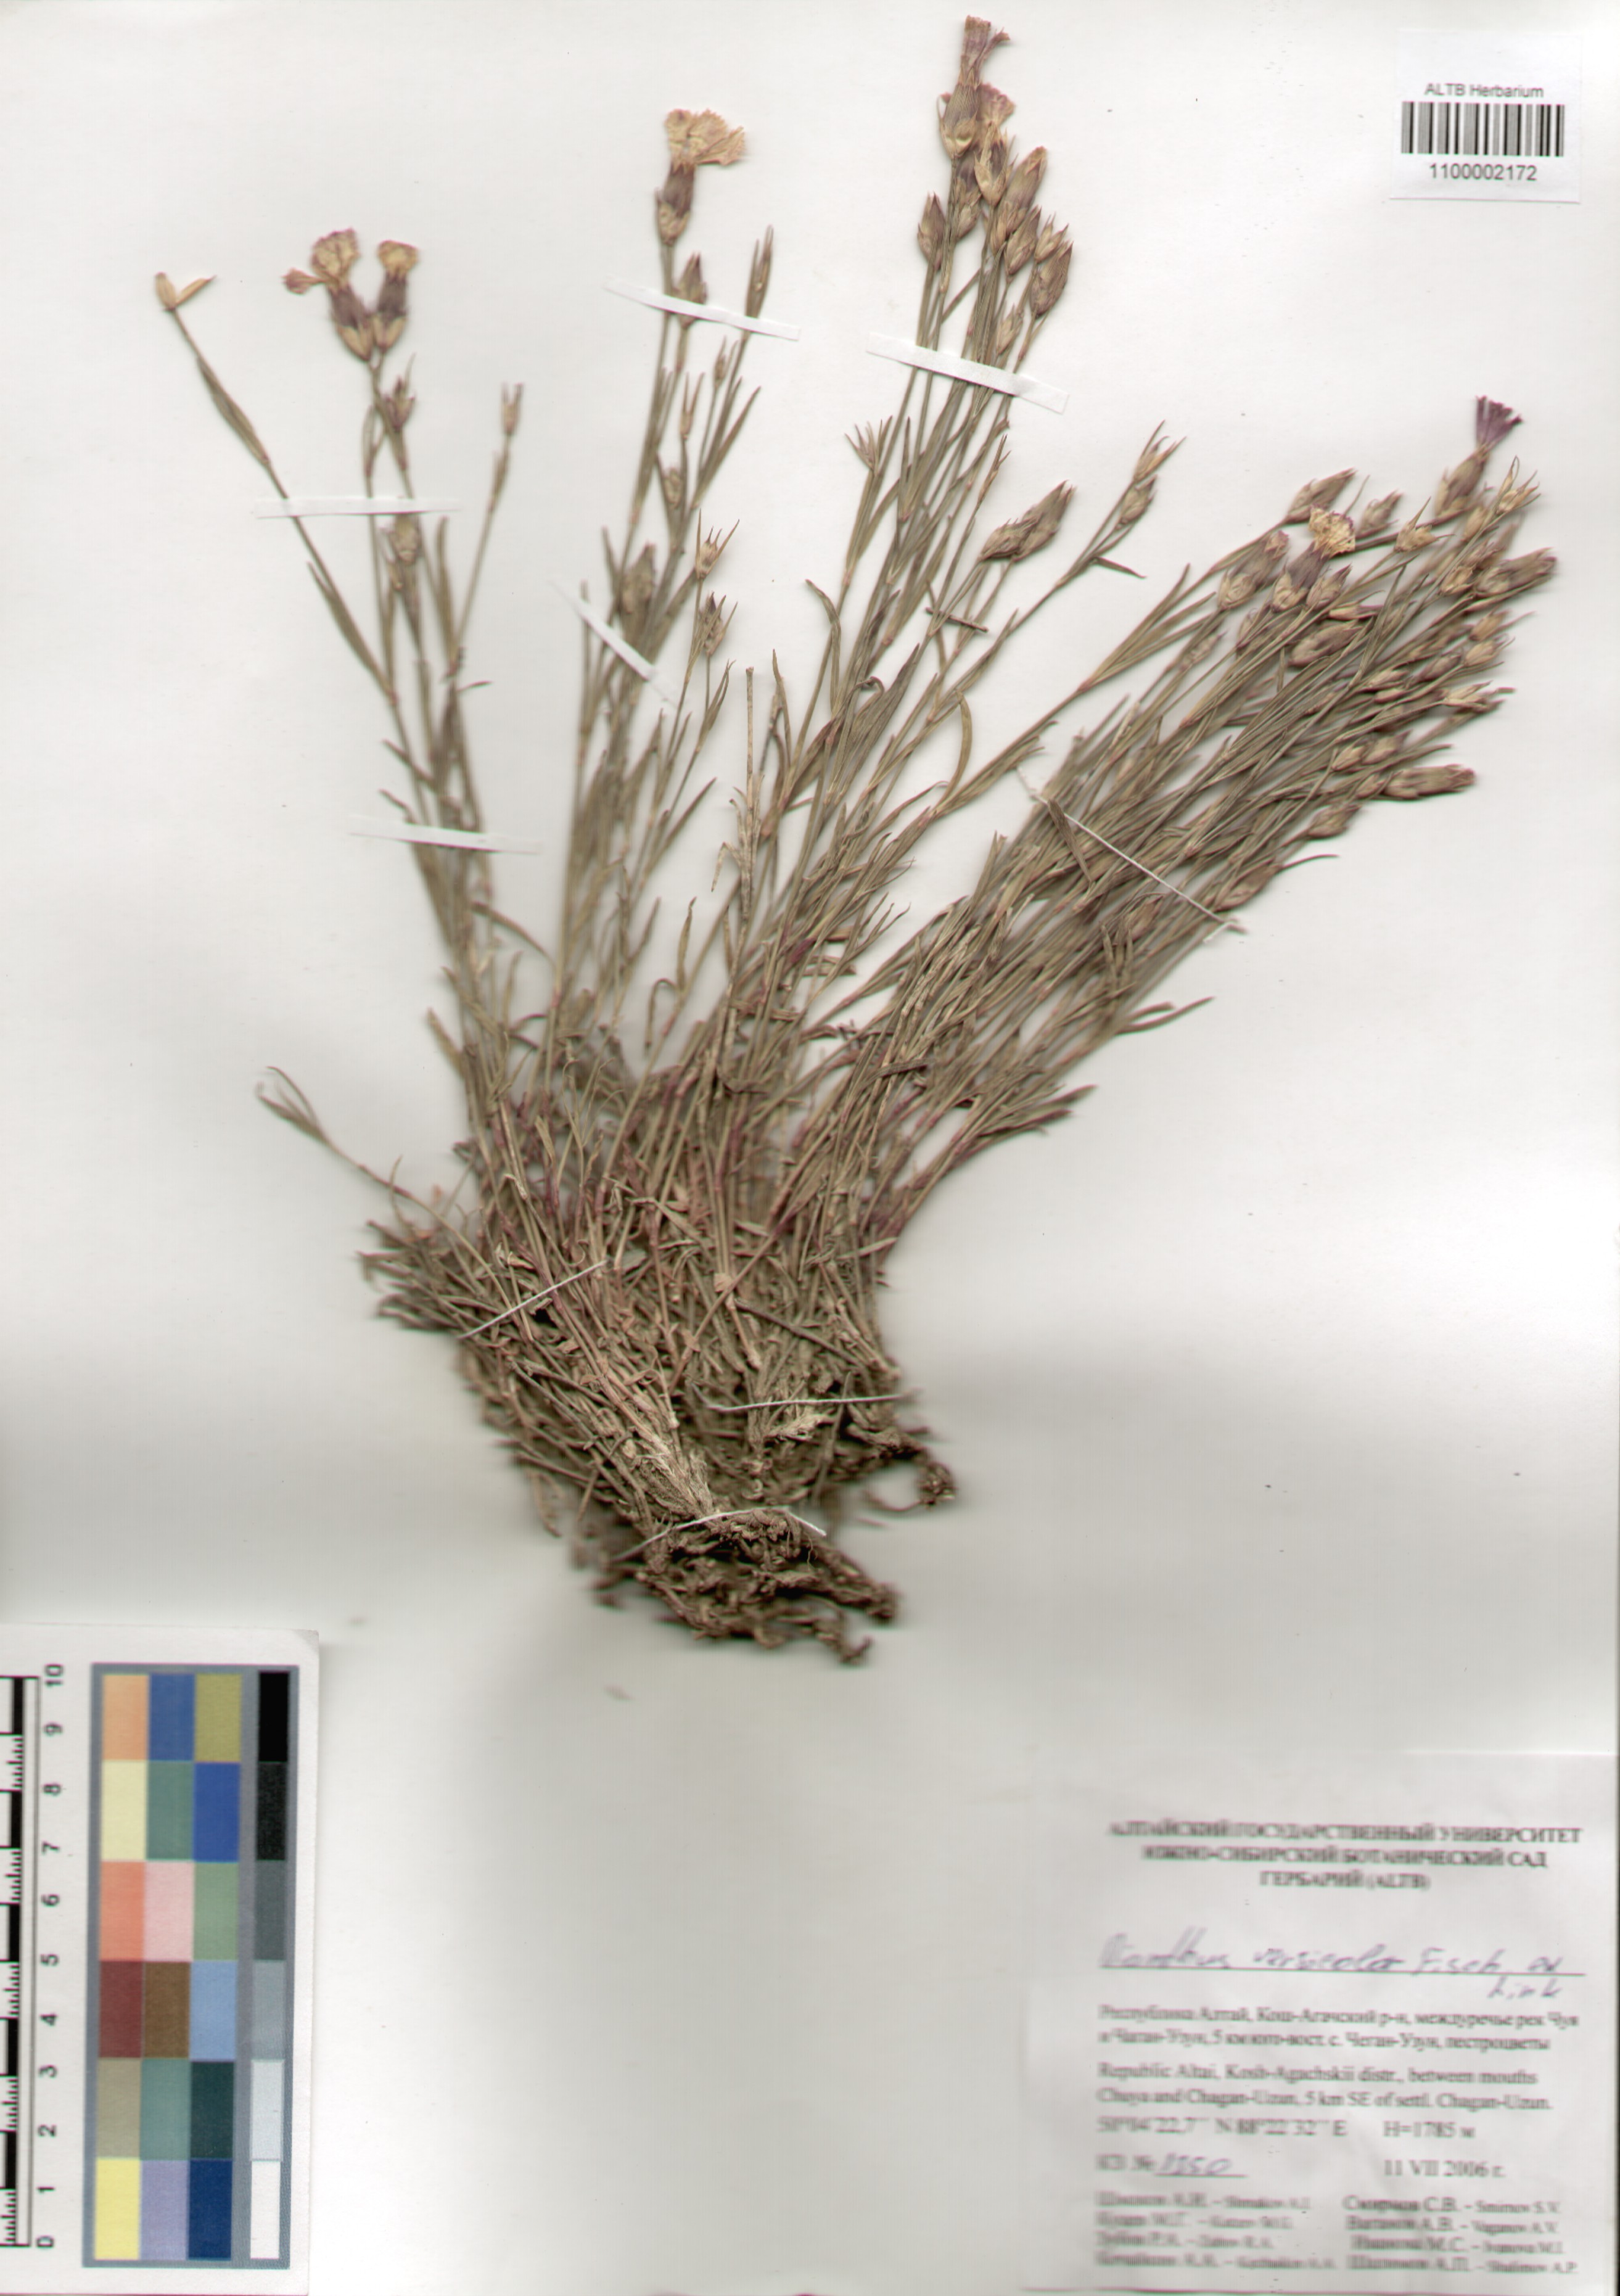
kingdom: Plantae
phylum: Tracheophyta
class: Magnoliopsida
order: Caryophyllales
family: Caryophyllaceae
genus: Dianthus
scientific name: Dianthus chinensis
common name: Rainbow pink
